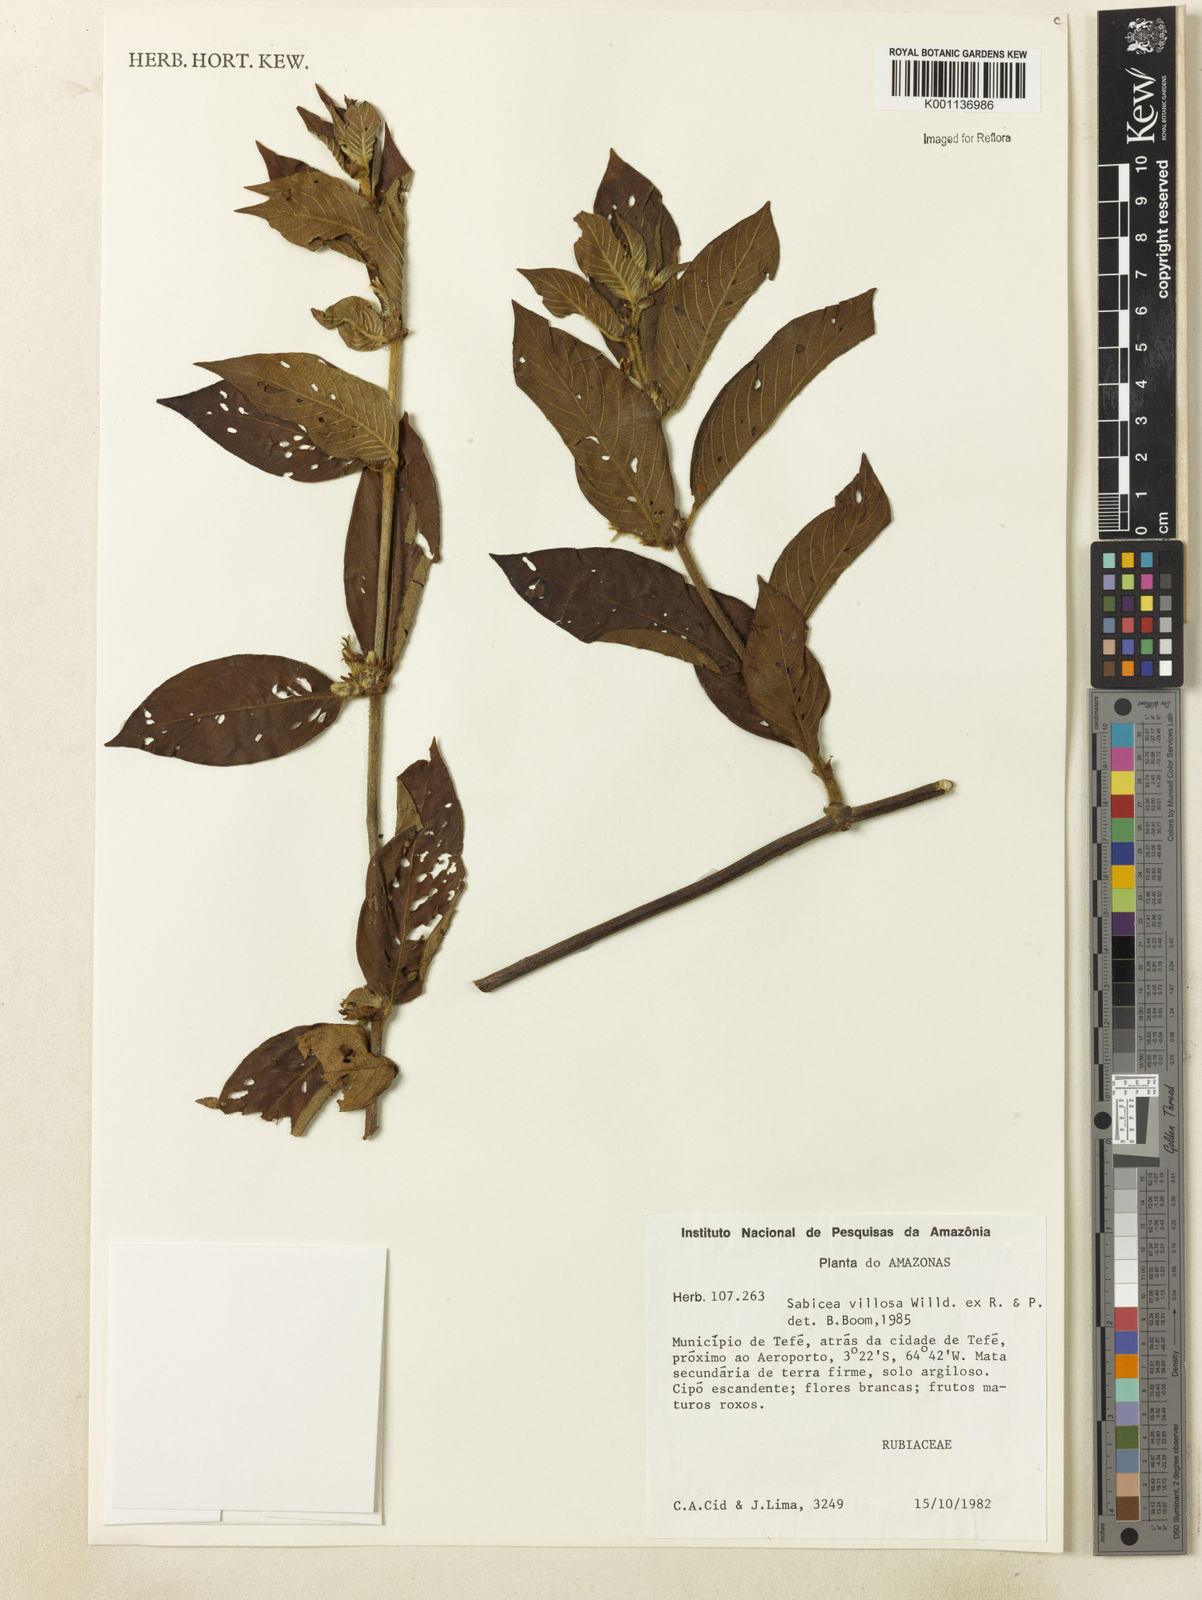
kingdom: Plantae
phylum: Tracheophyta
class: Magnoliopsida
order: Gentianales
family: Rubiaceae
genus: Sabicea
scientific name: Sabicea villosa
